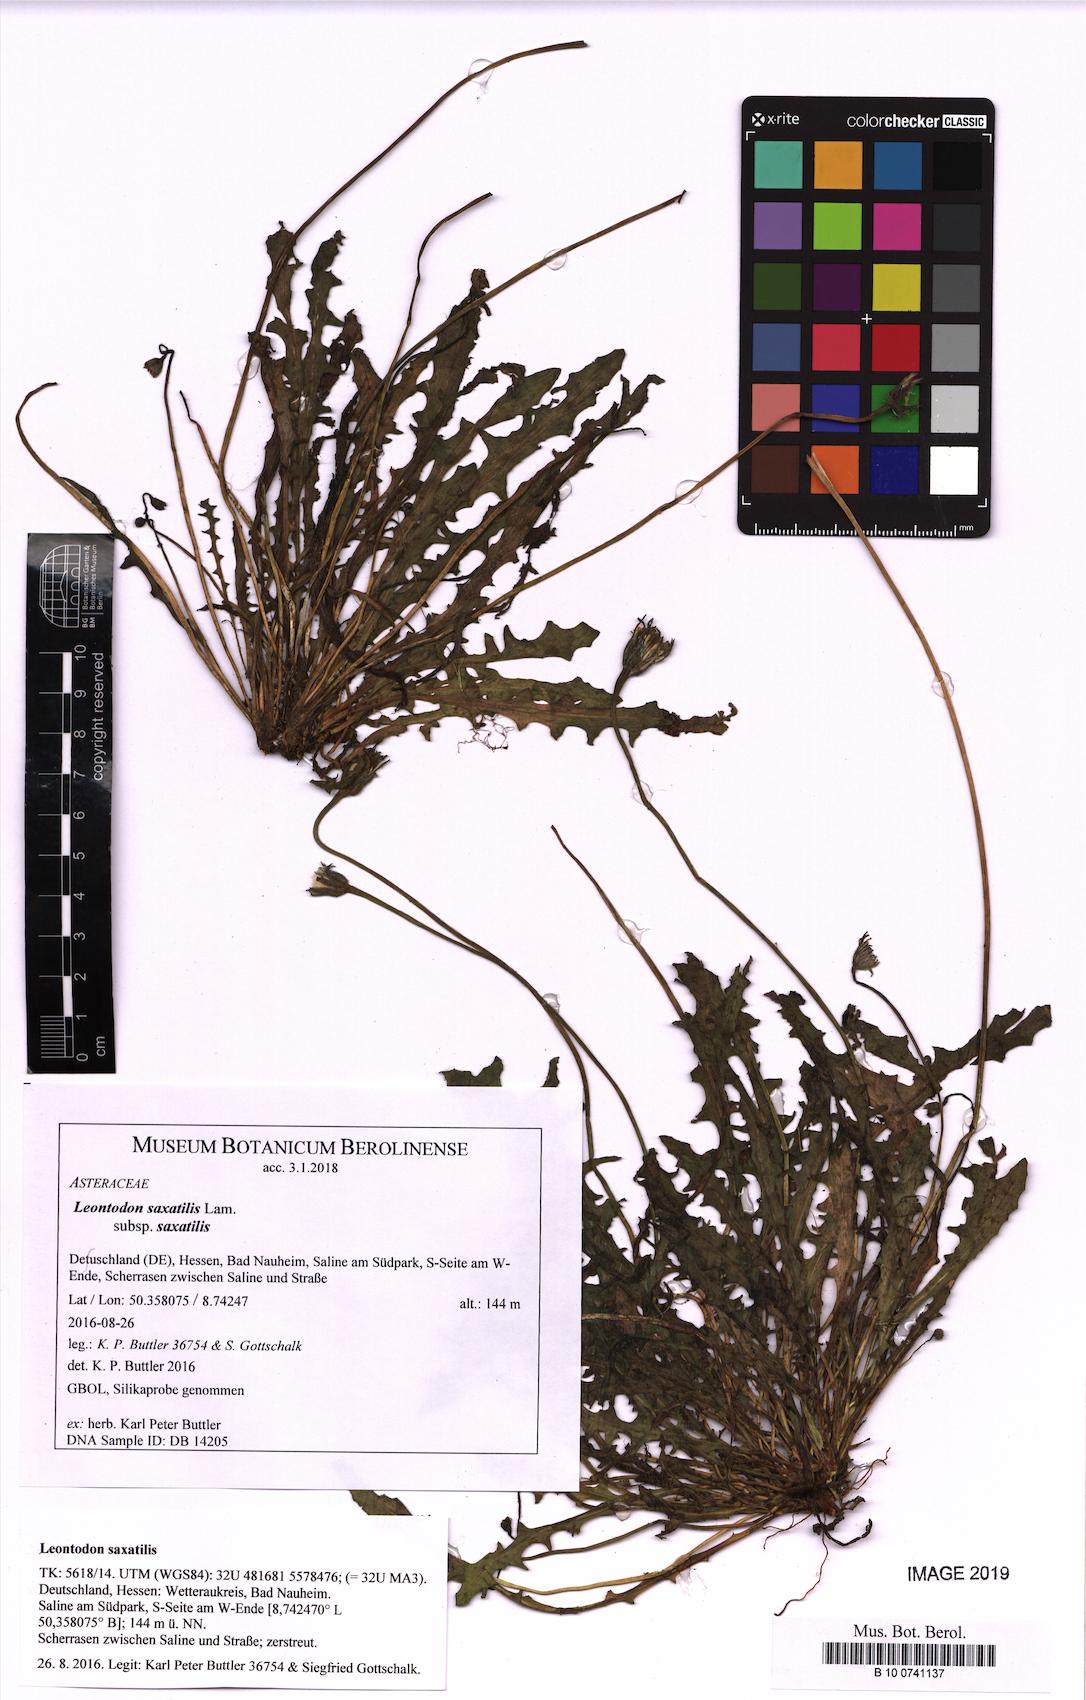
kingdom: Plantae
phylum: Tracheophyta
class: Magnoliopsida
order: Asterales
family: Asteraceae
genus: Thrincia
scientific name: Thrincia saxatilis
